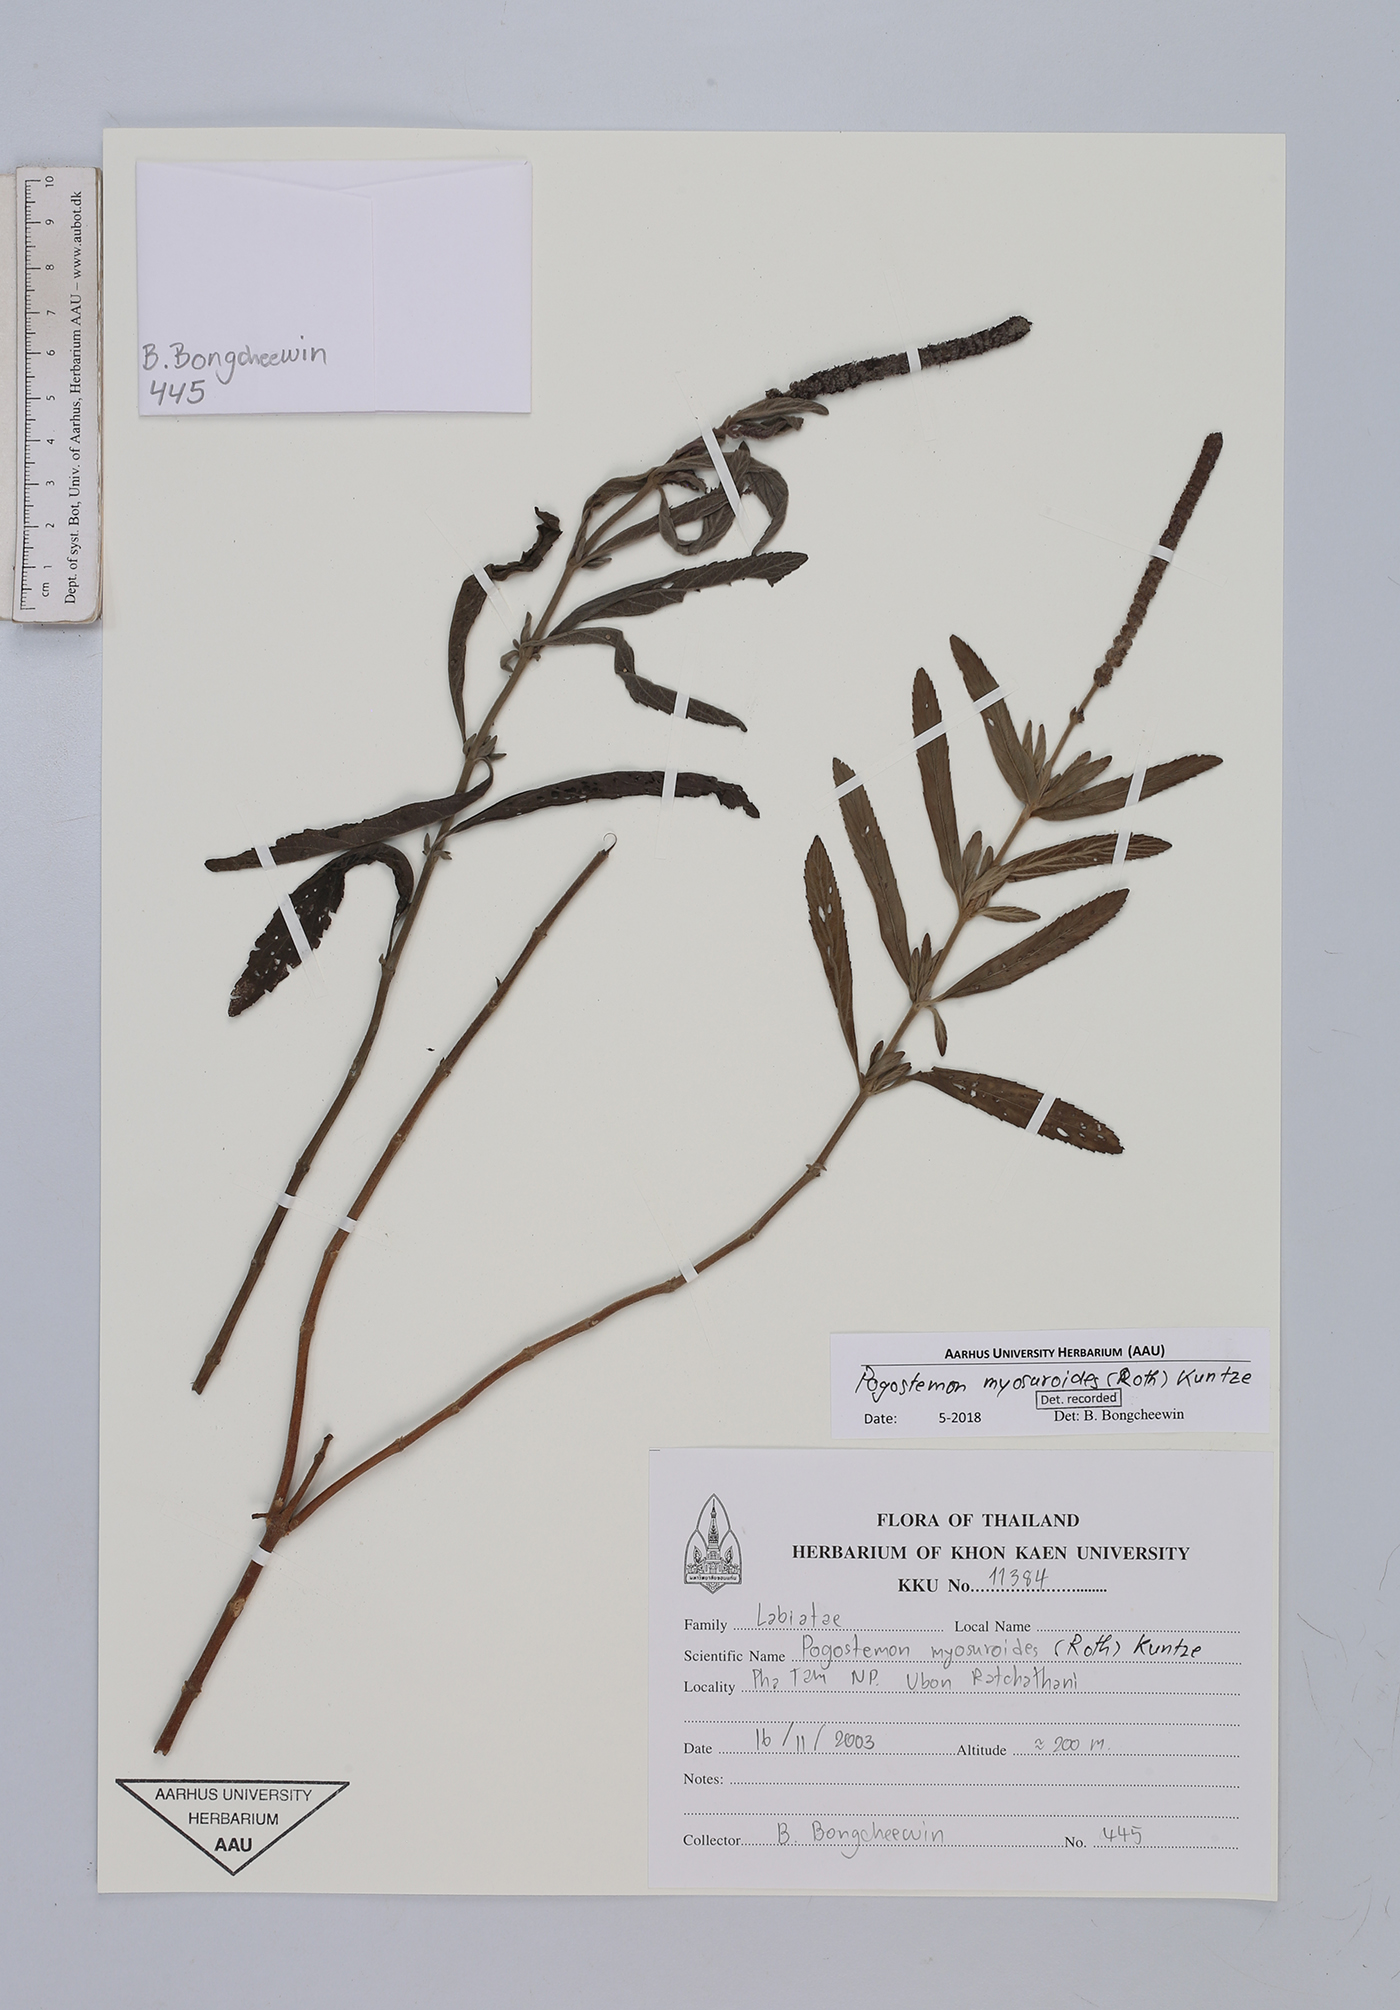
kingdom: Plantae
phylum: Tracheophyta
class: Magnoliopsida
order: Lamiales
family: Lamiaceae
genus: Pogostemon
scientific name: Pogostemon myosuroides
